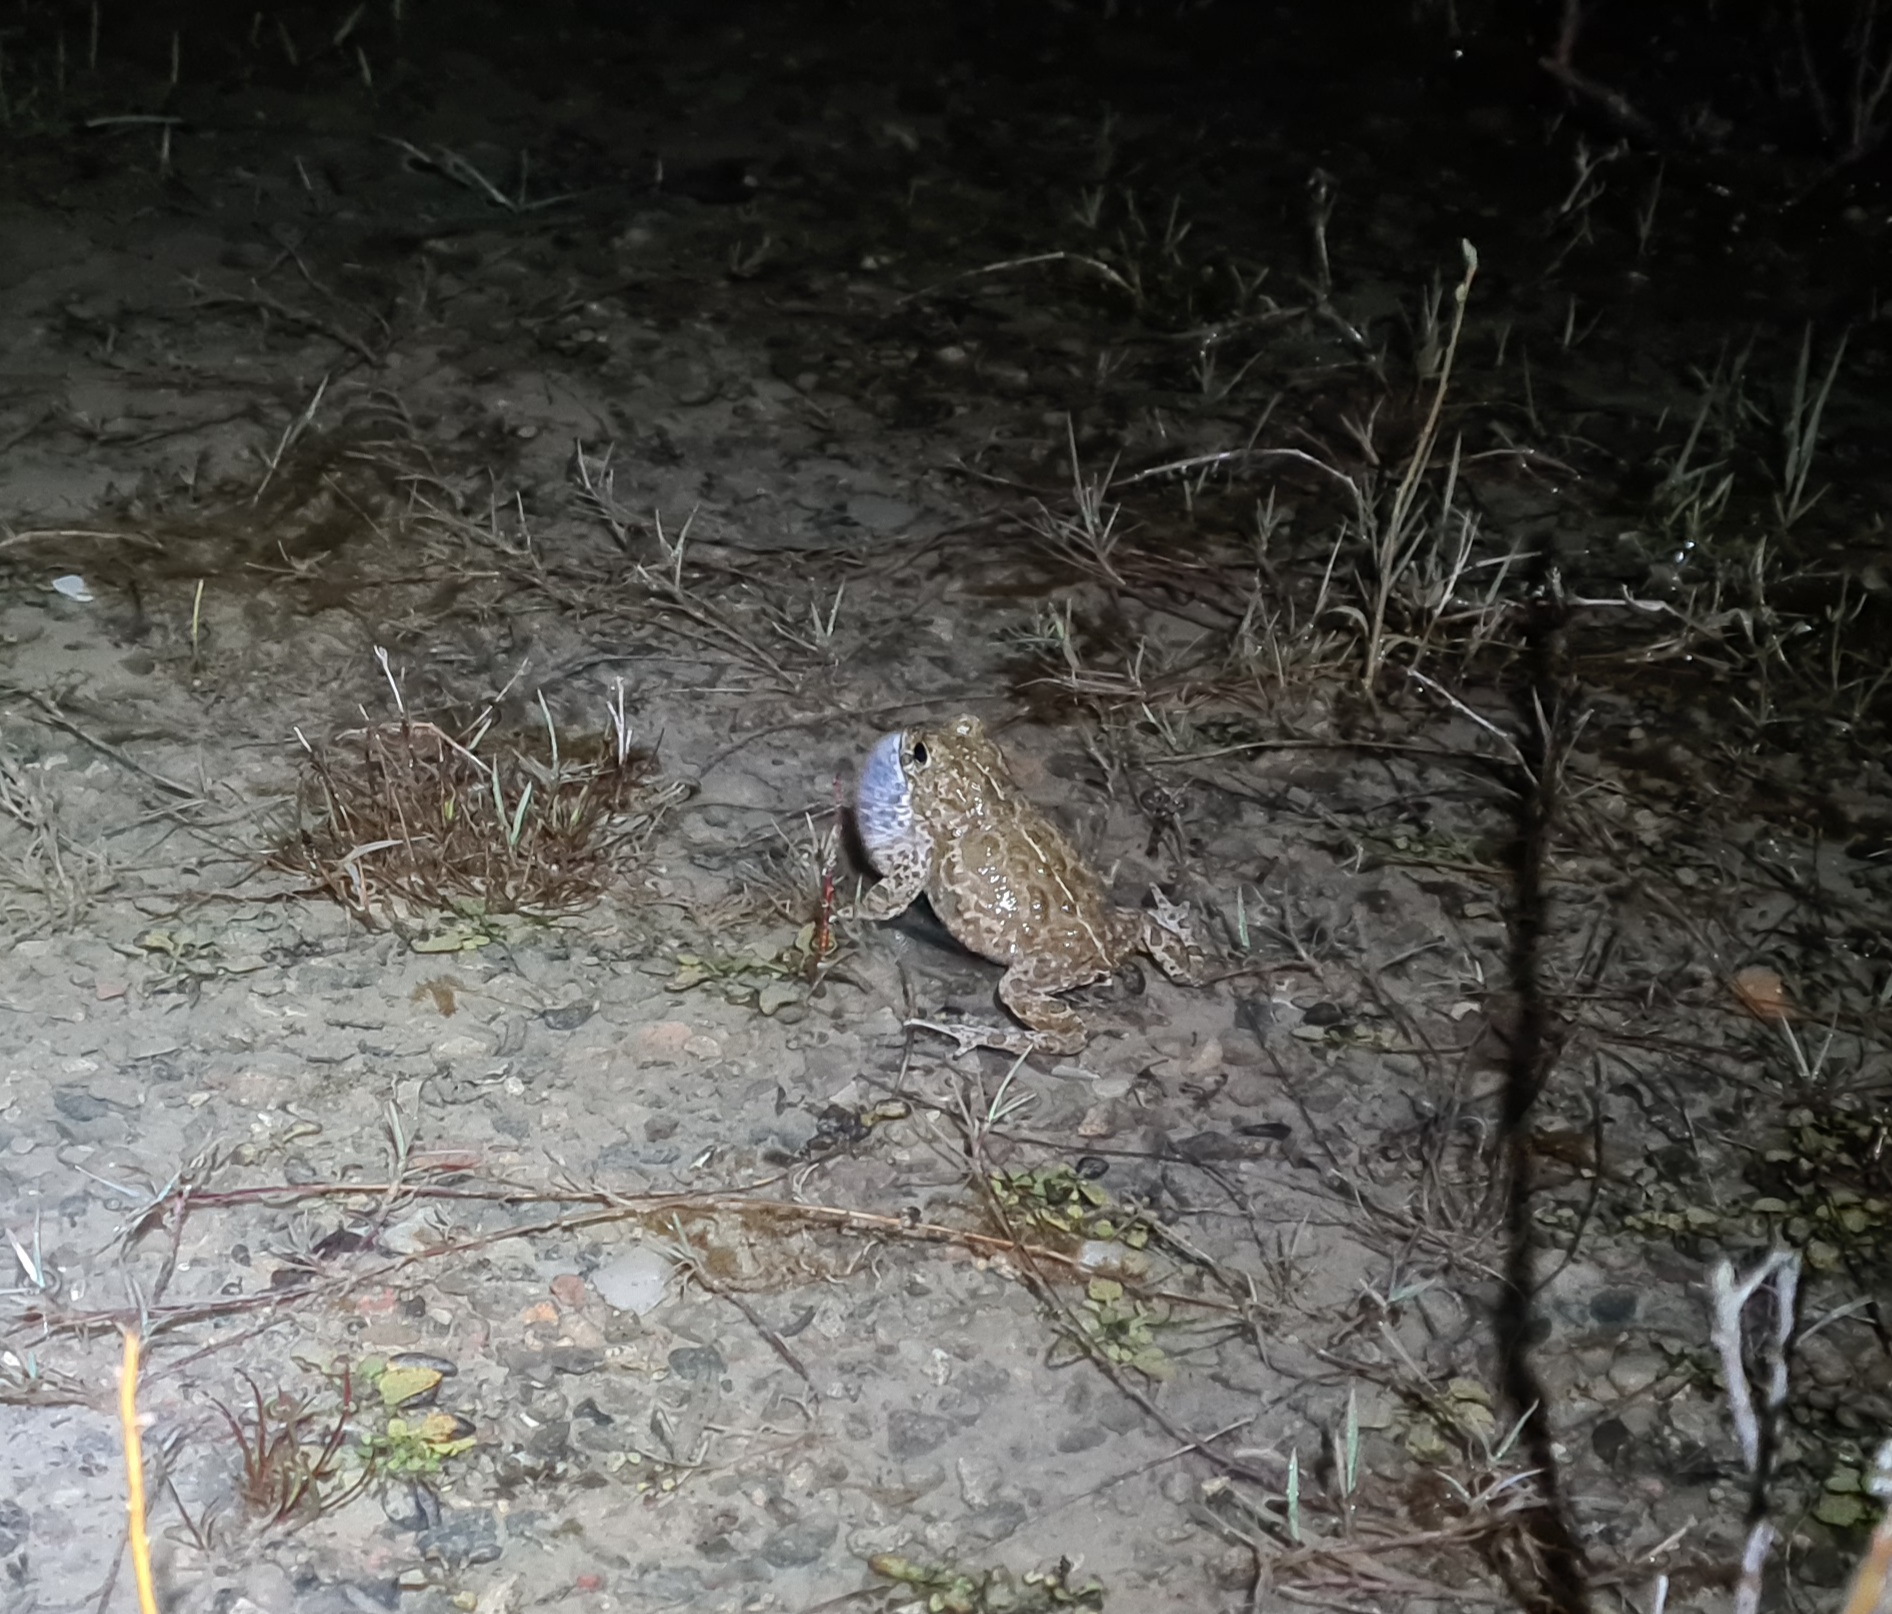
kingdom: Animalia
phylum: Chordata
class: Amphibia
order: Anura
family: Bufonidae
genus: Epidalea
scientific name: Epidalea calamita
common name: Strandtudse
